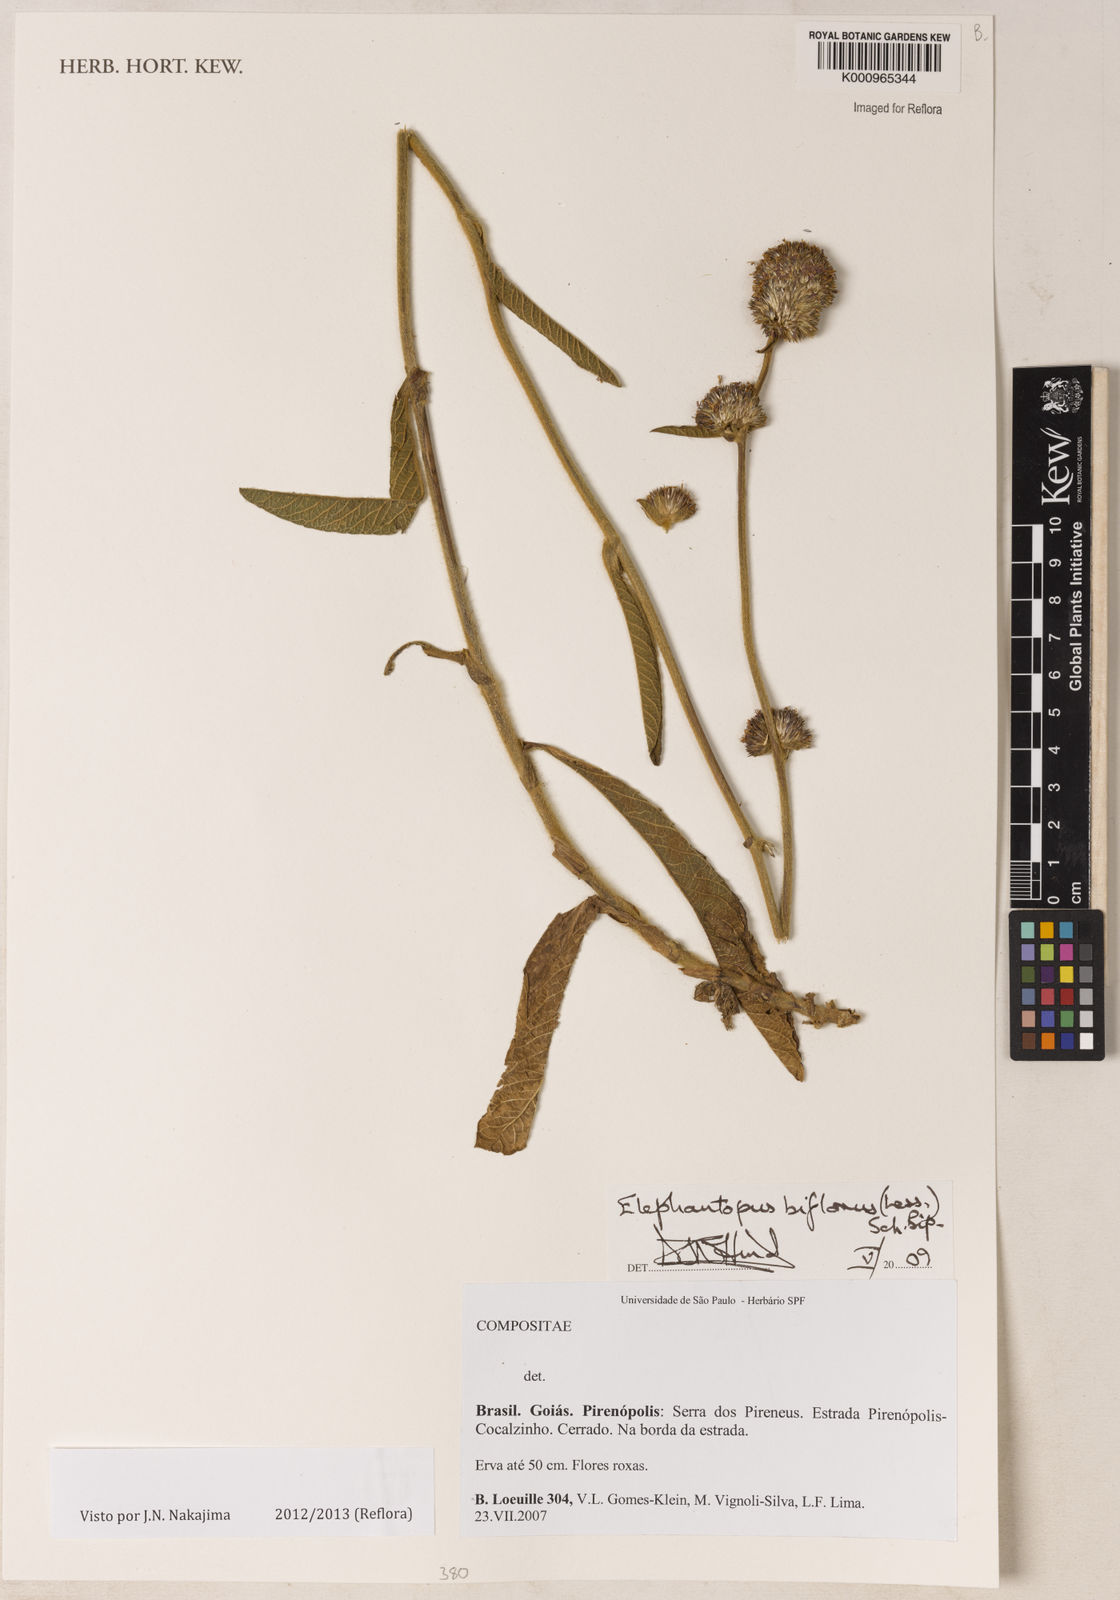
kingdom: Plantae
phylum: Tracheophyta
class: Magnoliopsida
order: Asterales
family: Asteraceae
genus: Elephantopus
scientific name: Elephantopus biflorus
